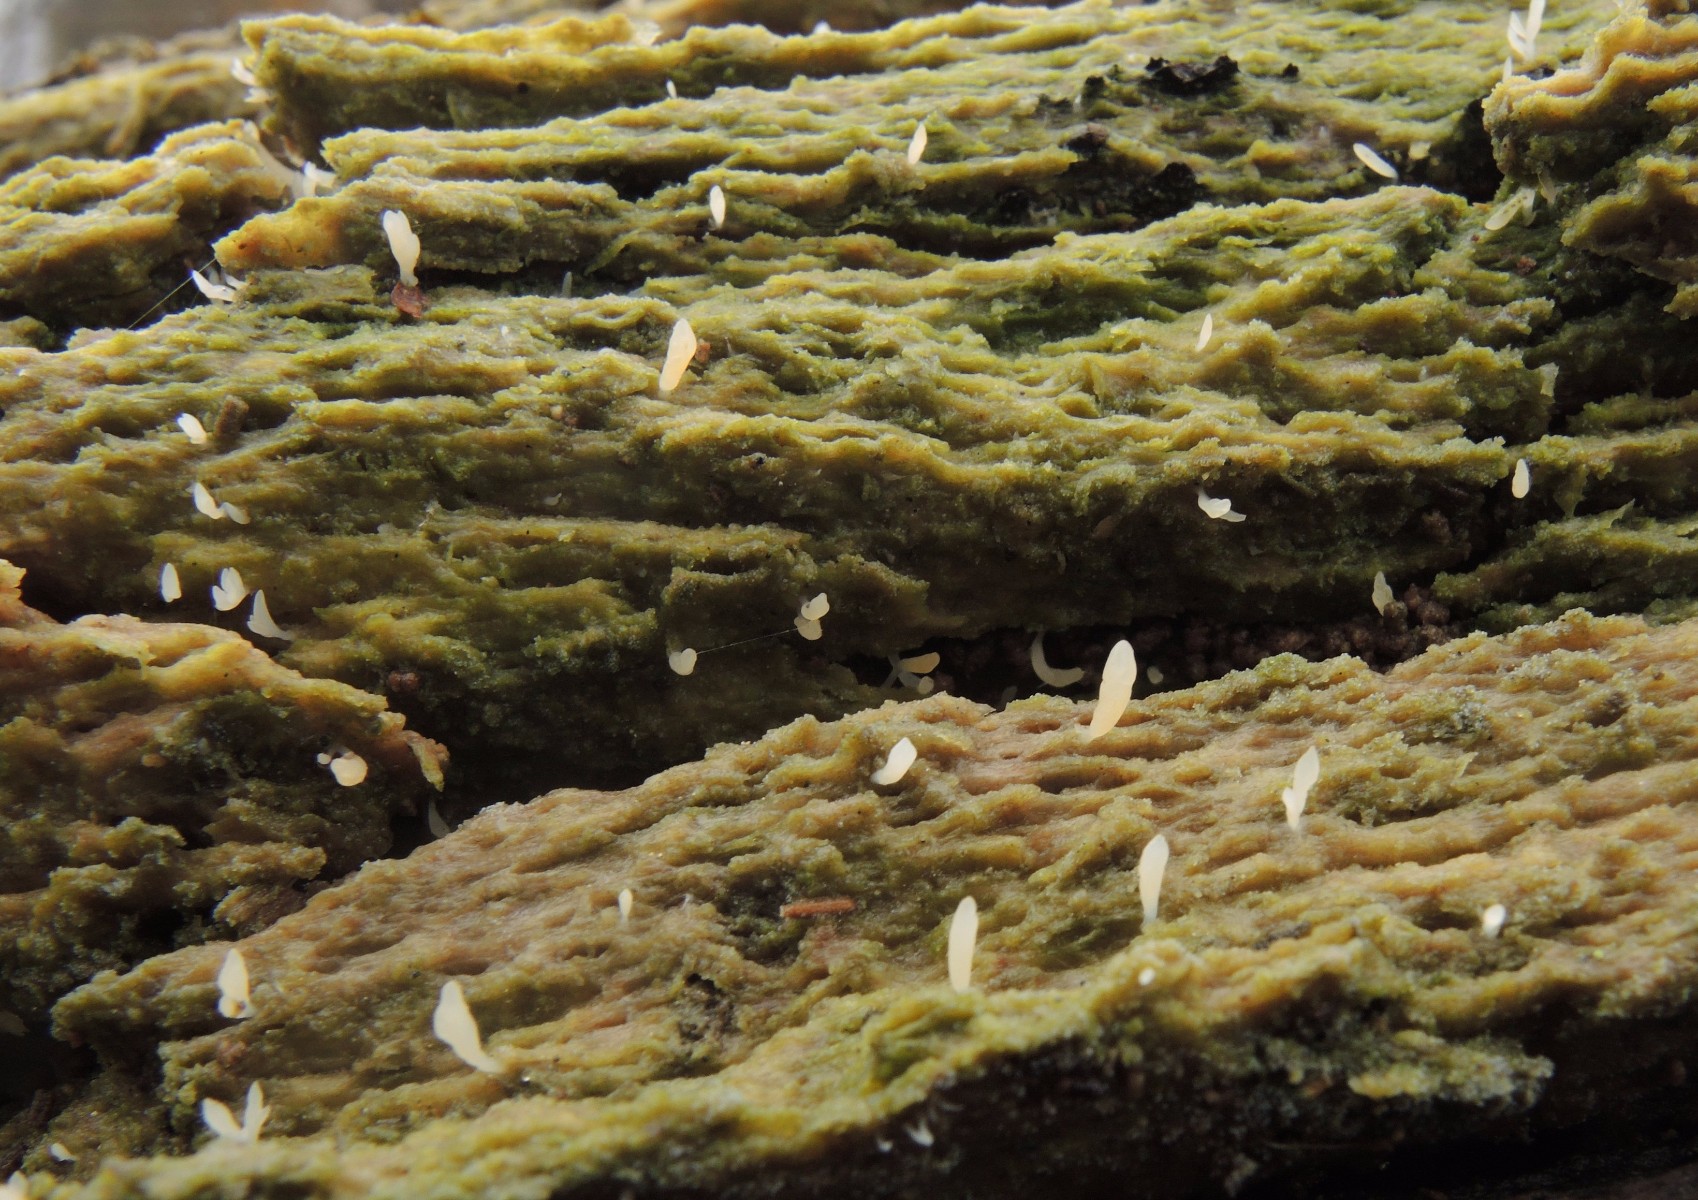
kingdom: Fungi
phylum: Basidiomycota
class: Agaricomycetes
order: Cantharellales
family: Hydnaceae
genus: Multiclavula
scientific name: Multiclavula mucida
